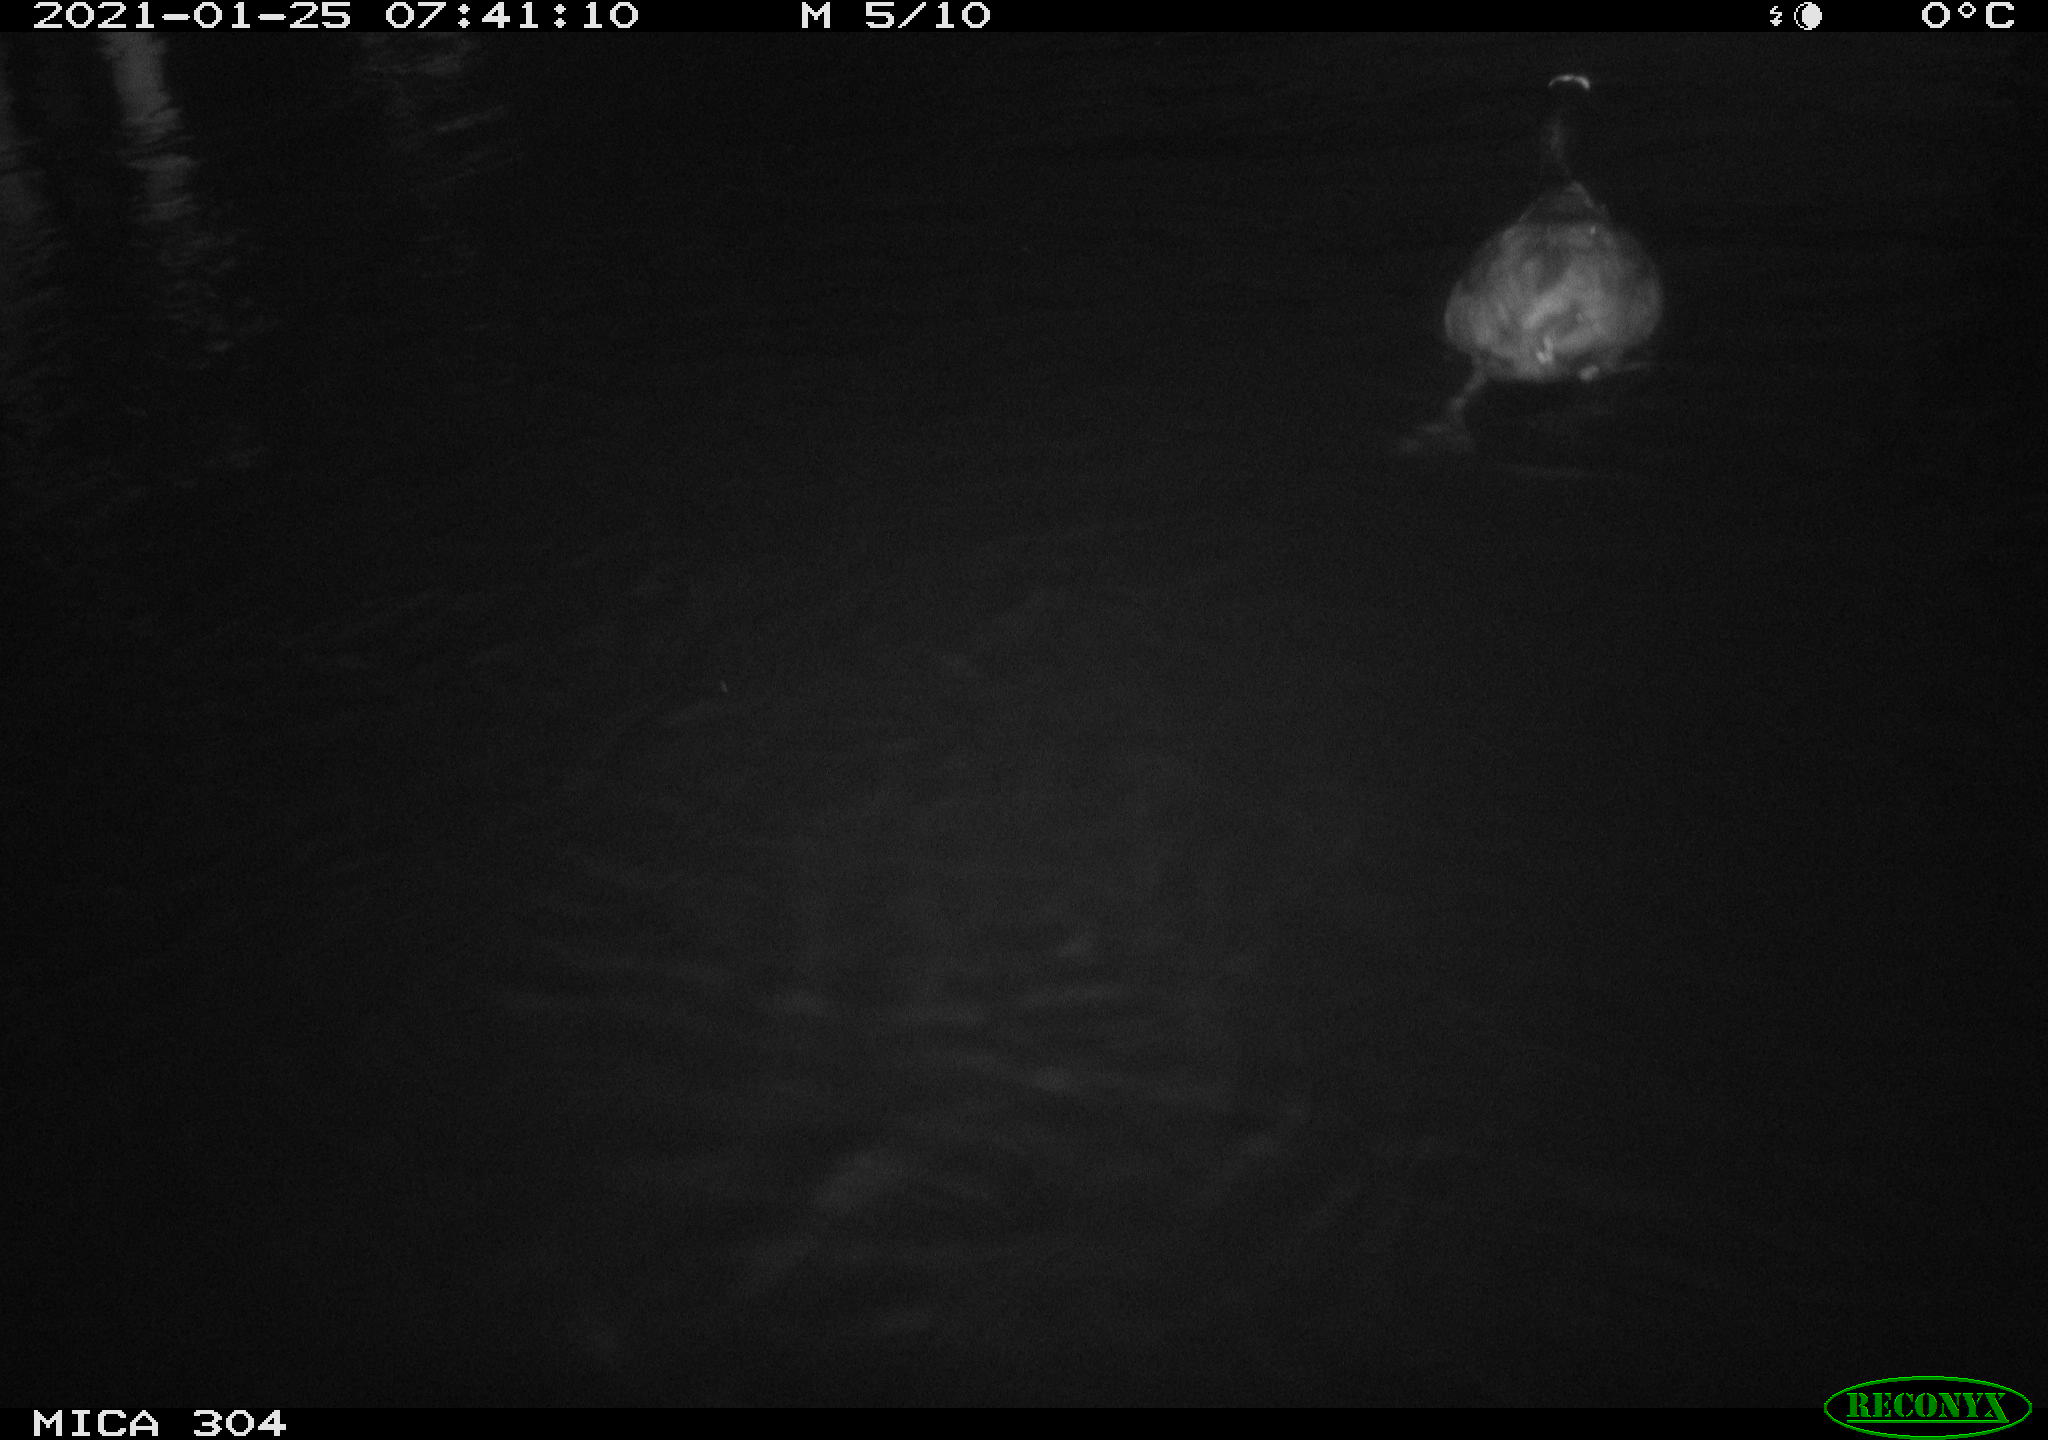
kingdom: Animalia
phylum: Chordata
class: Aves
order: Gruiformes
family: Rallidae
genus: Fulica
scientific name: Fulica atra
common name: Eurasian coot
